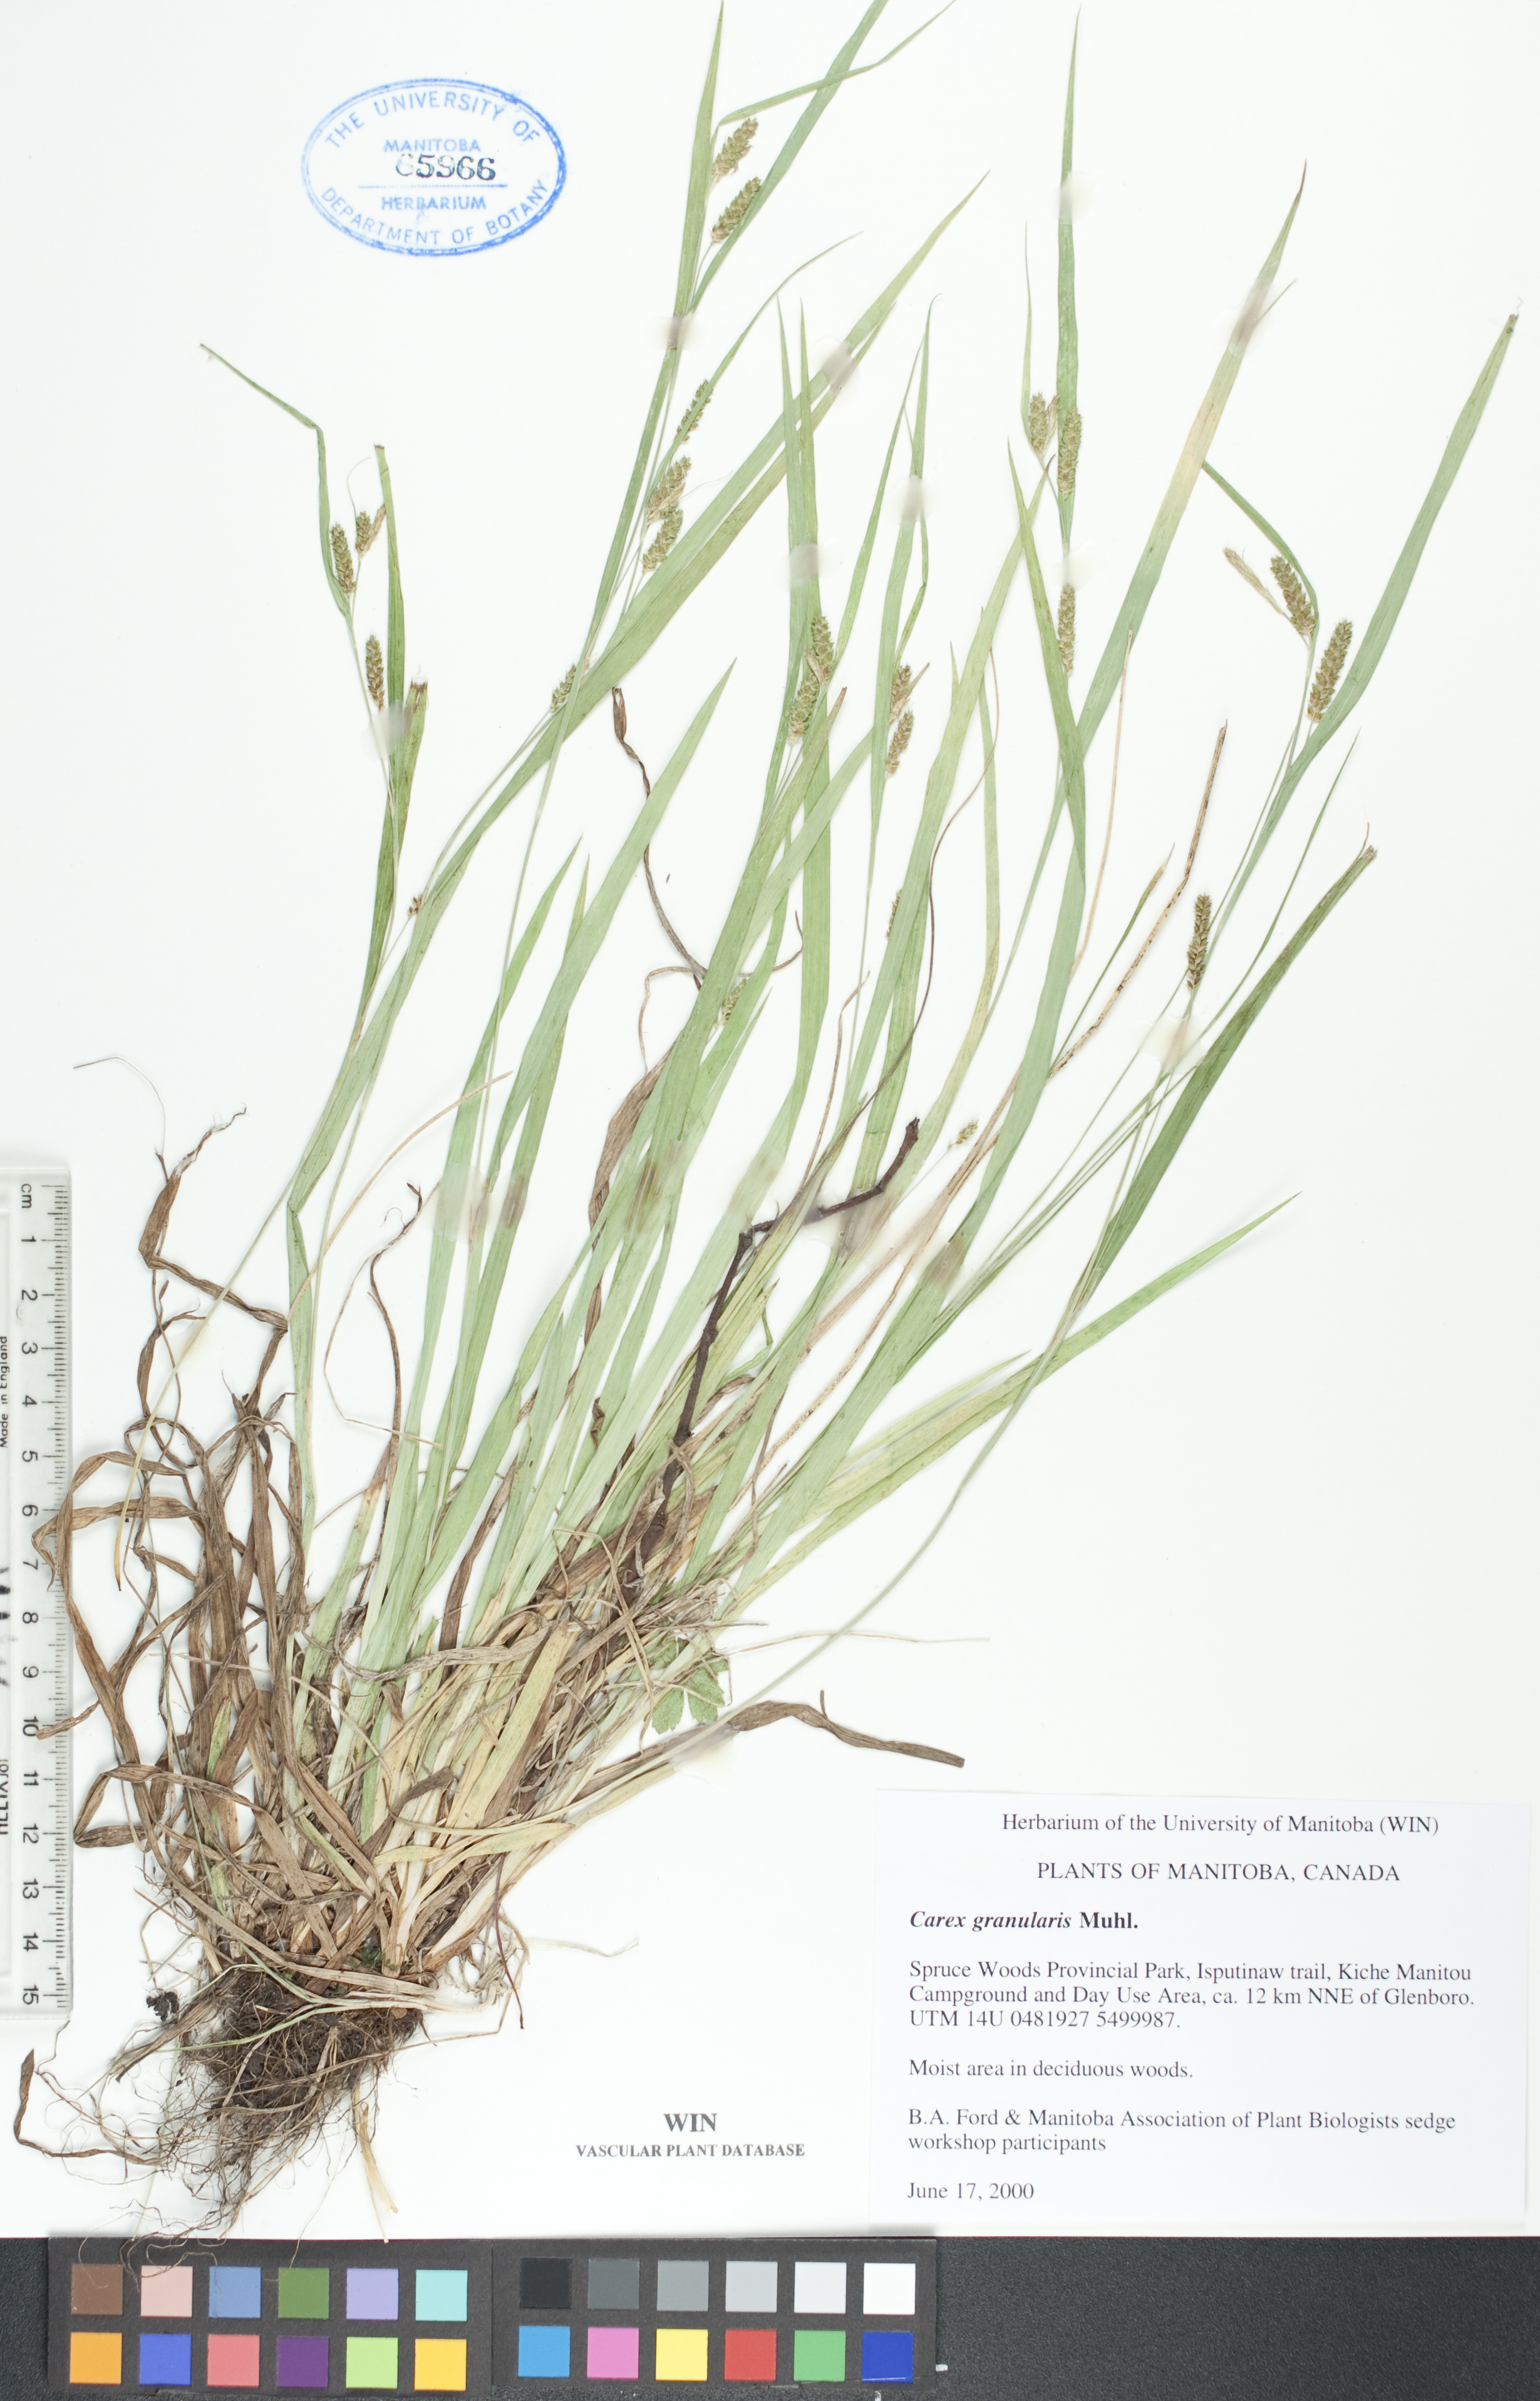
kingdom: Plantae
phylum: Tracheophyta
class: Liliopsida
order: Poales
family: Cyperaceae
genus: Carex
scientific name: Carex granularis
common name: Granular sedge
